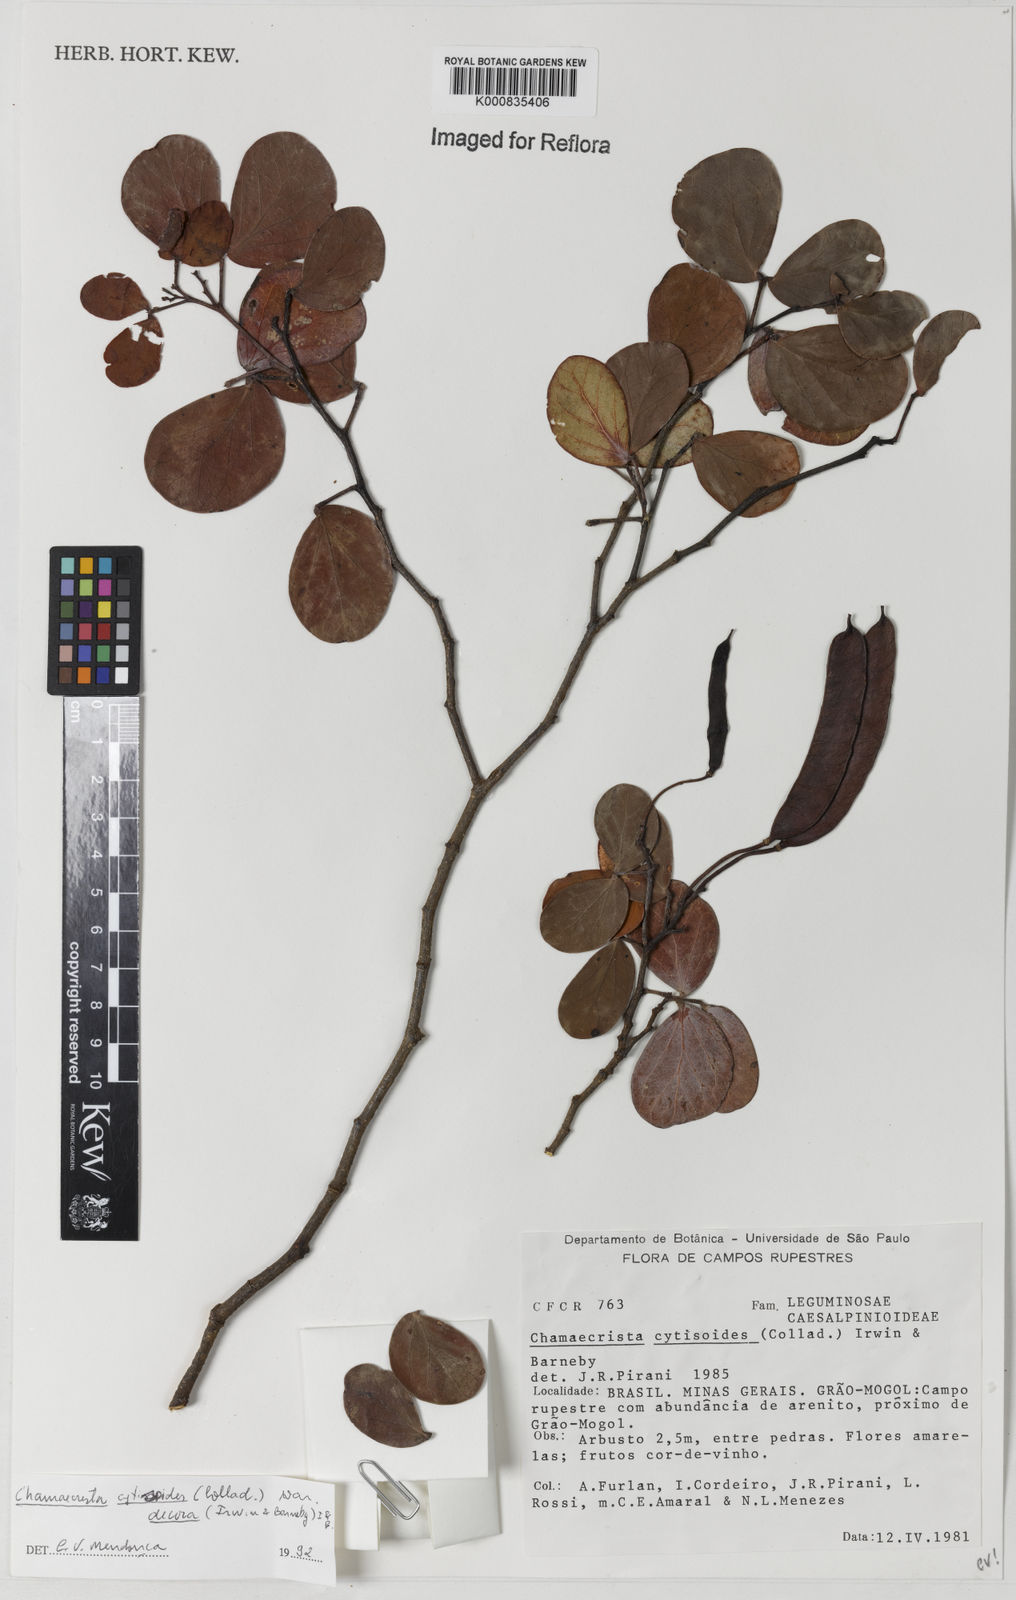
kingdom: Plantae
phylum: Tracheophyta
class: Magnoliopsida
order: Fabales
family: Fabaceae
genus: Chamaecrista
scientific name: Chamaecrista decora
